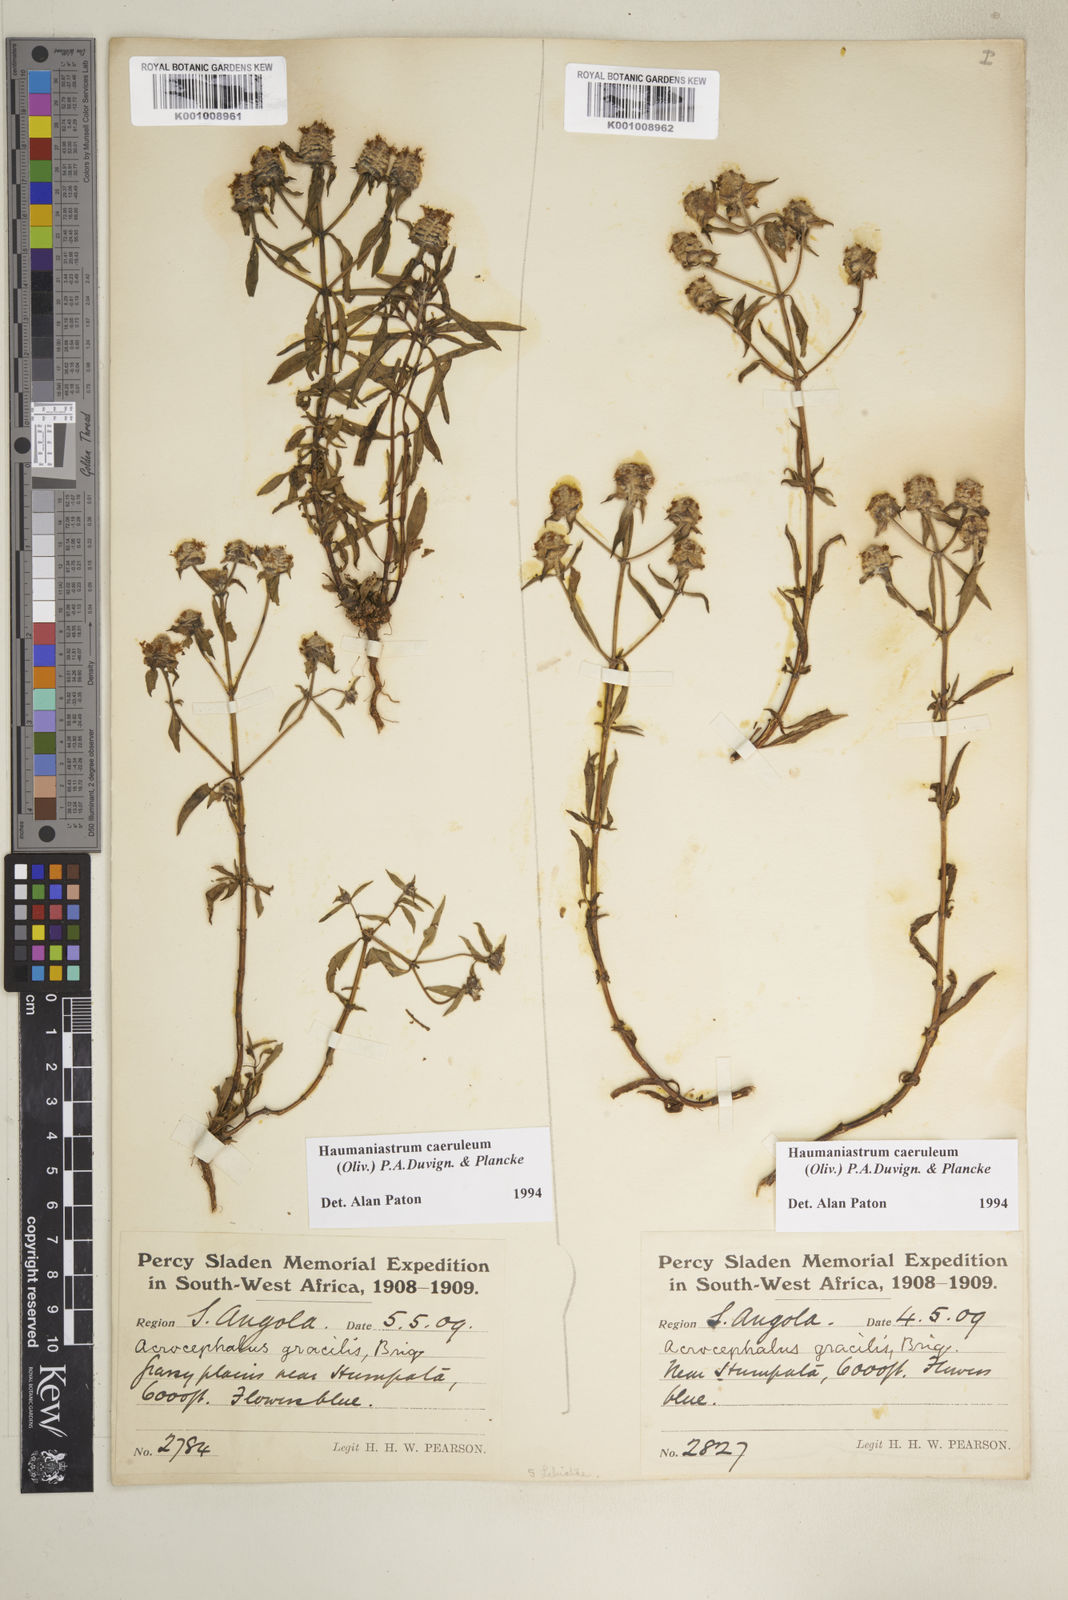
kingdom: Plantae
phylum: Tracheophyta
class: Magnoliopsida
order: Lamiales
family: Lamiaceae
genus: Haumaniastrum
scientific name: Haumaniastrum caeruleum
